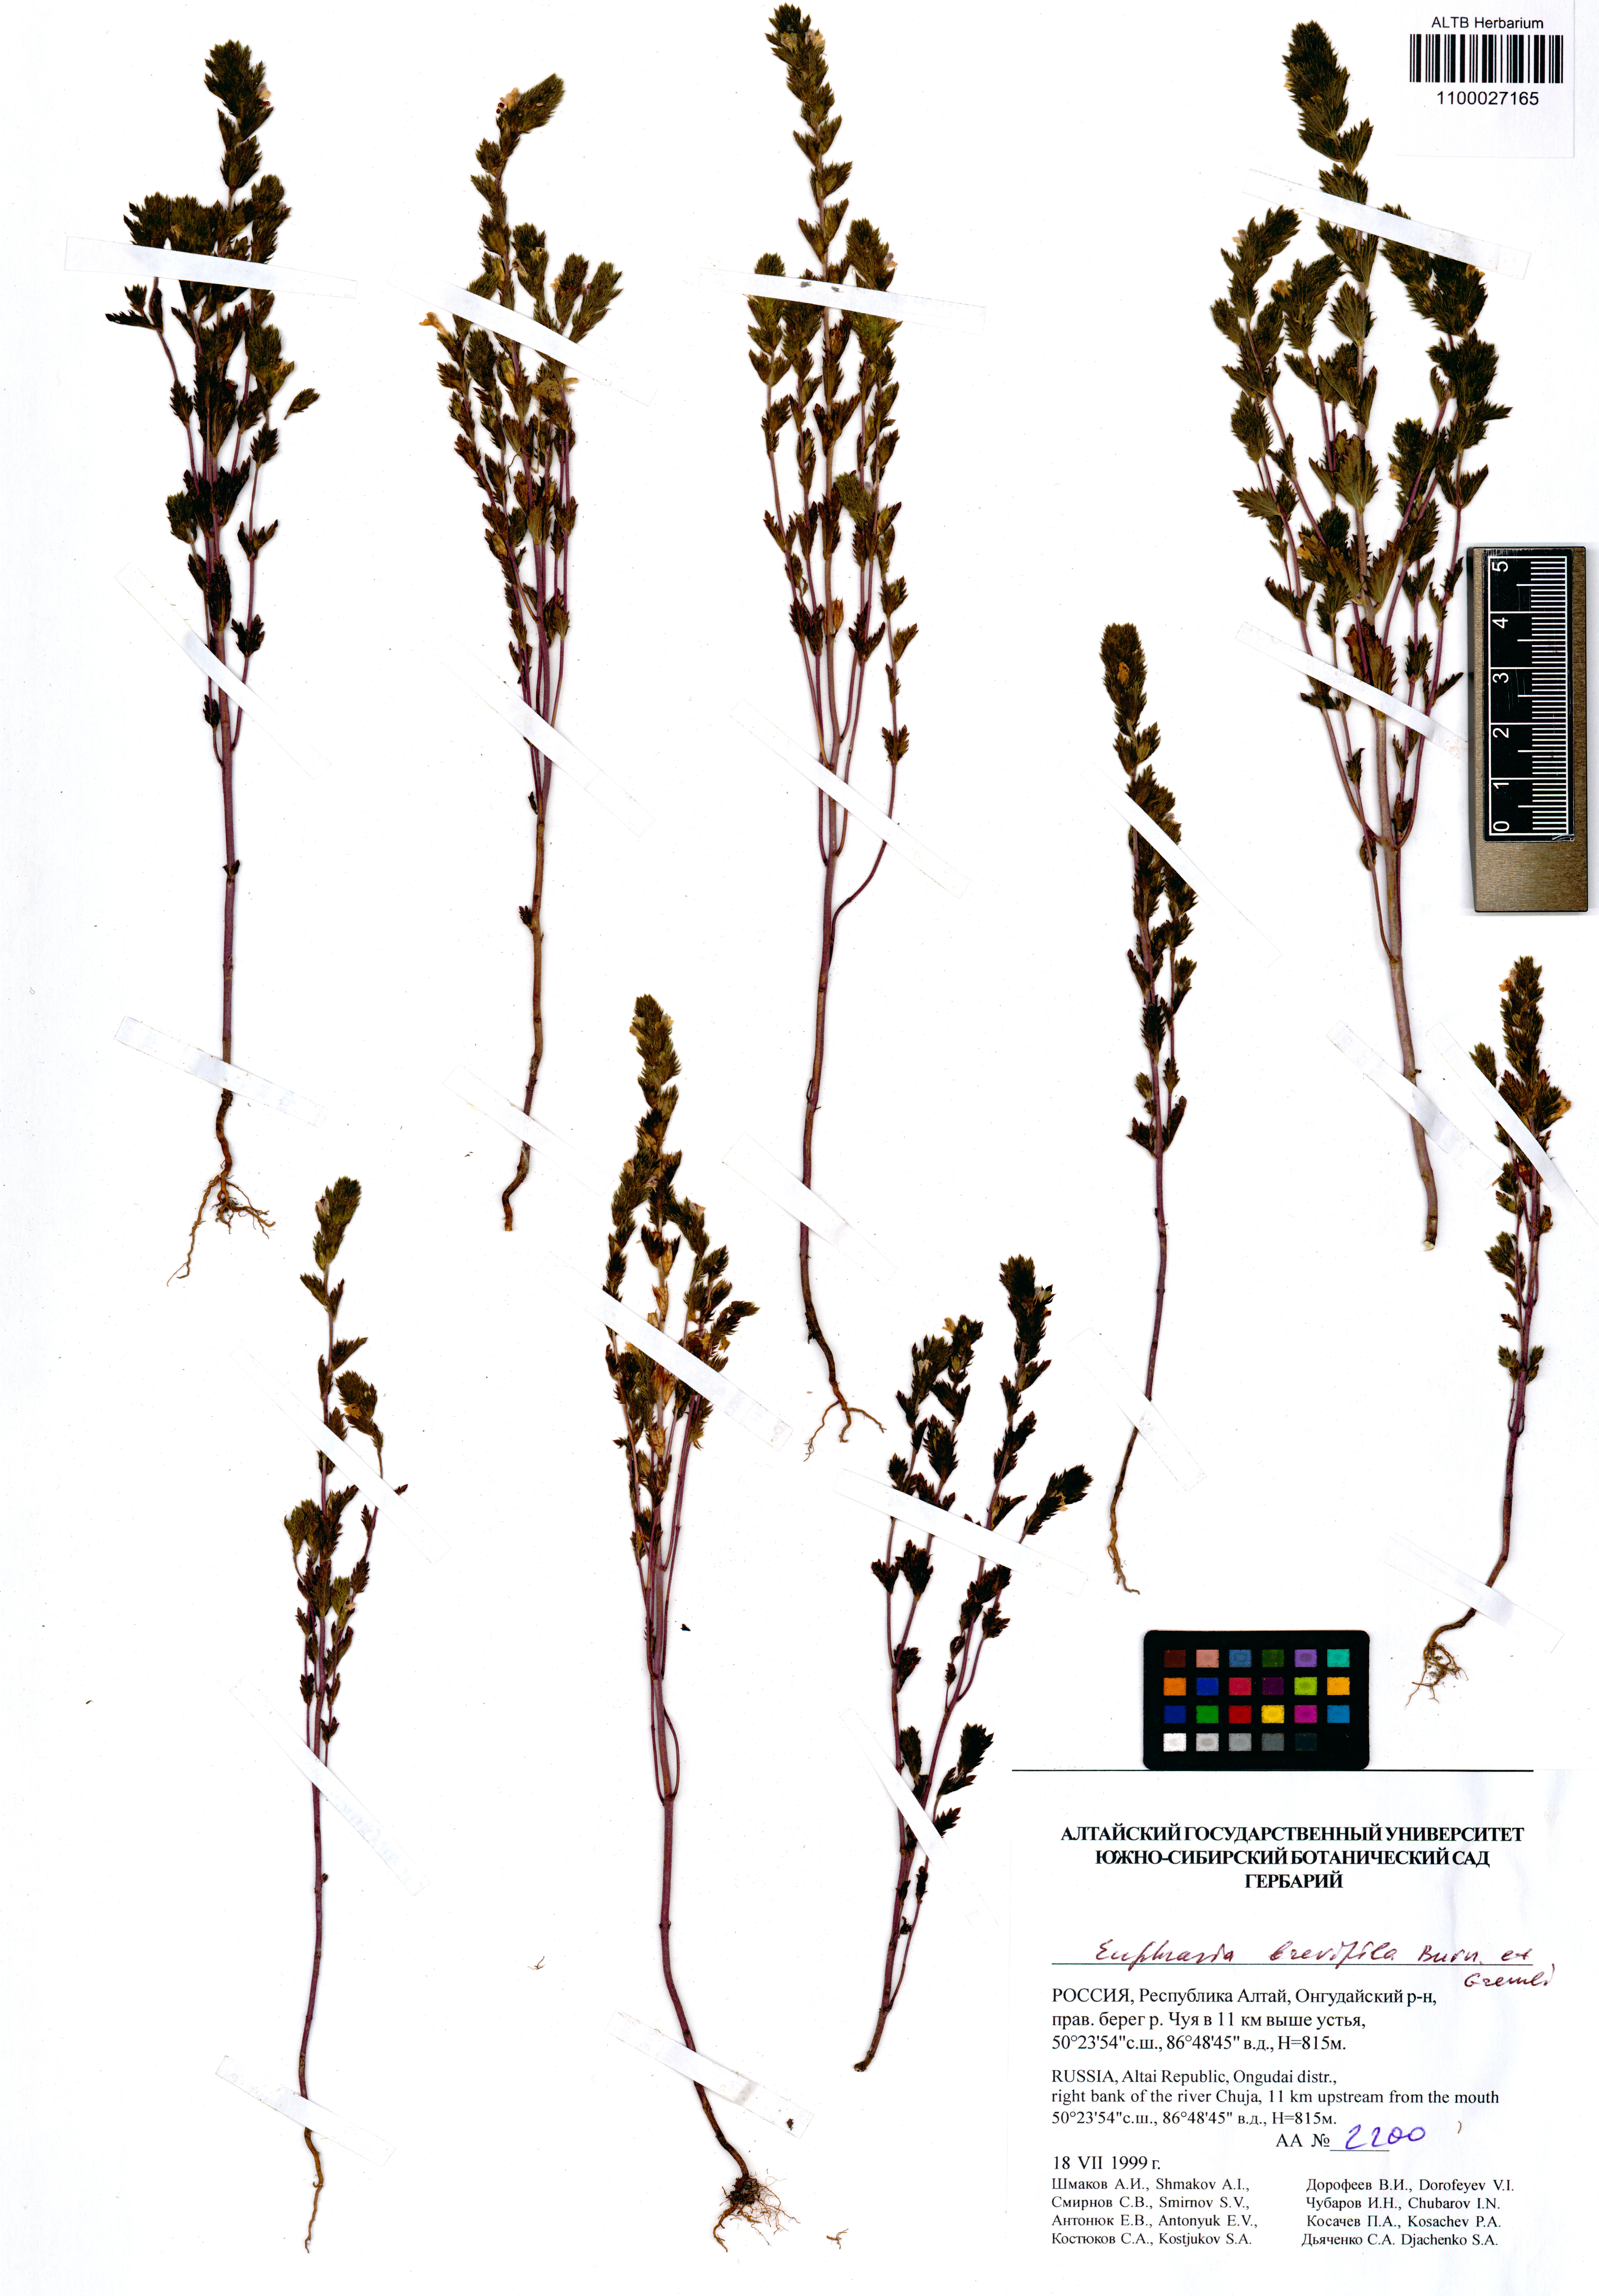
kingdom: Plantae
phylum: Tracheophyta
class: Magnoliopsida
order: Lamiales
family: Orobanchaceae
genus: Euphrasia
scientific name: Euphrasia vernalis
